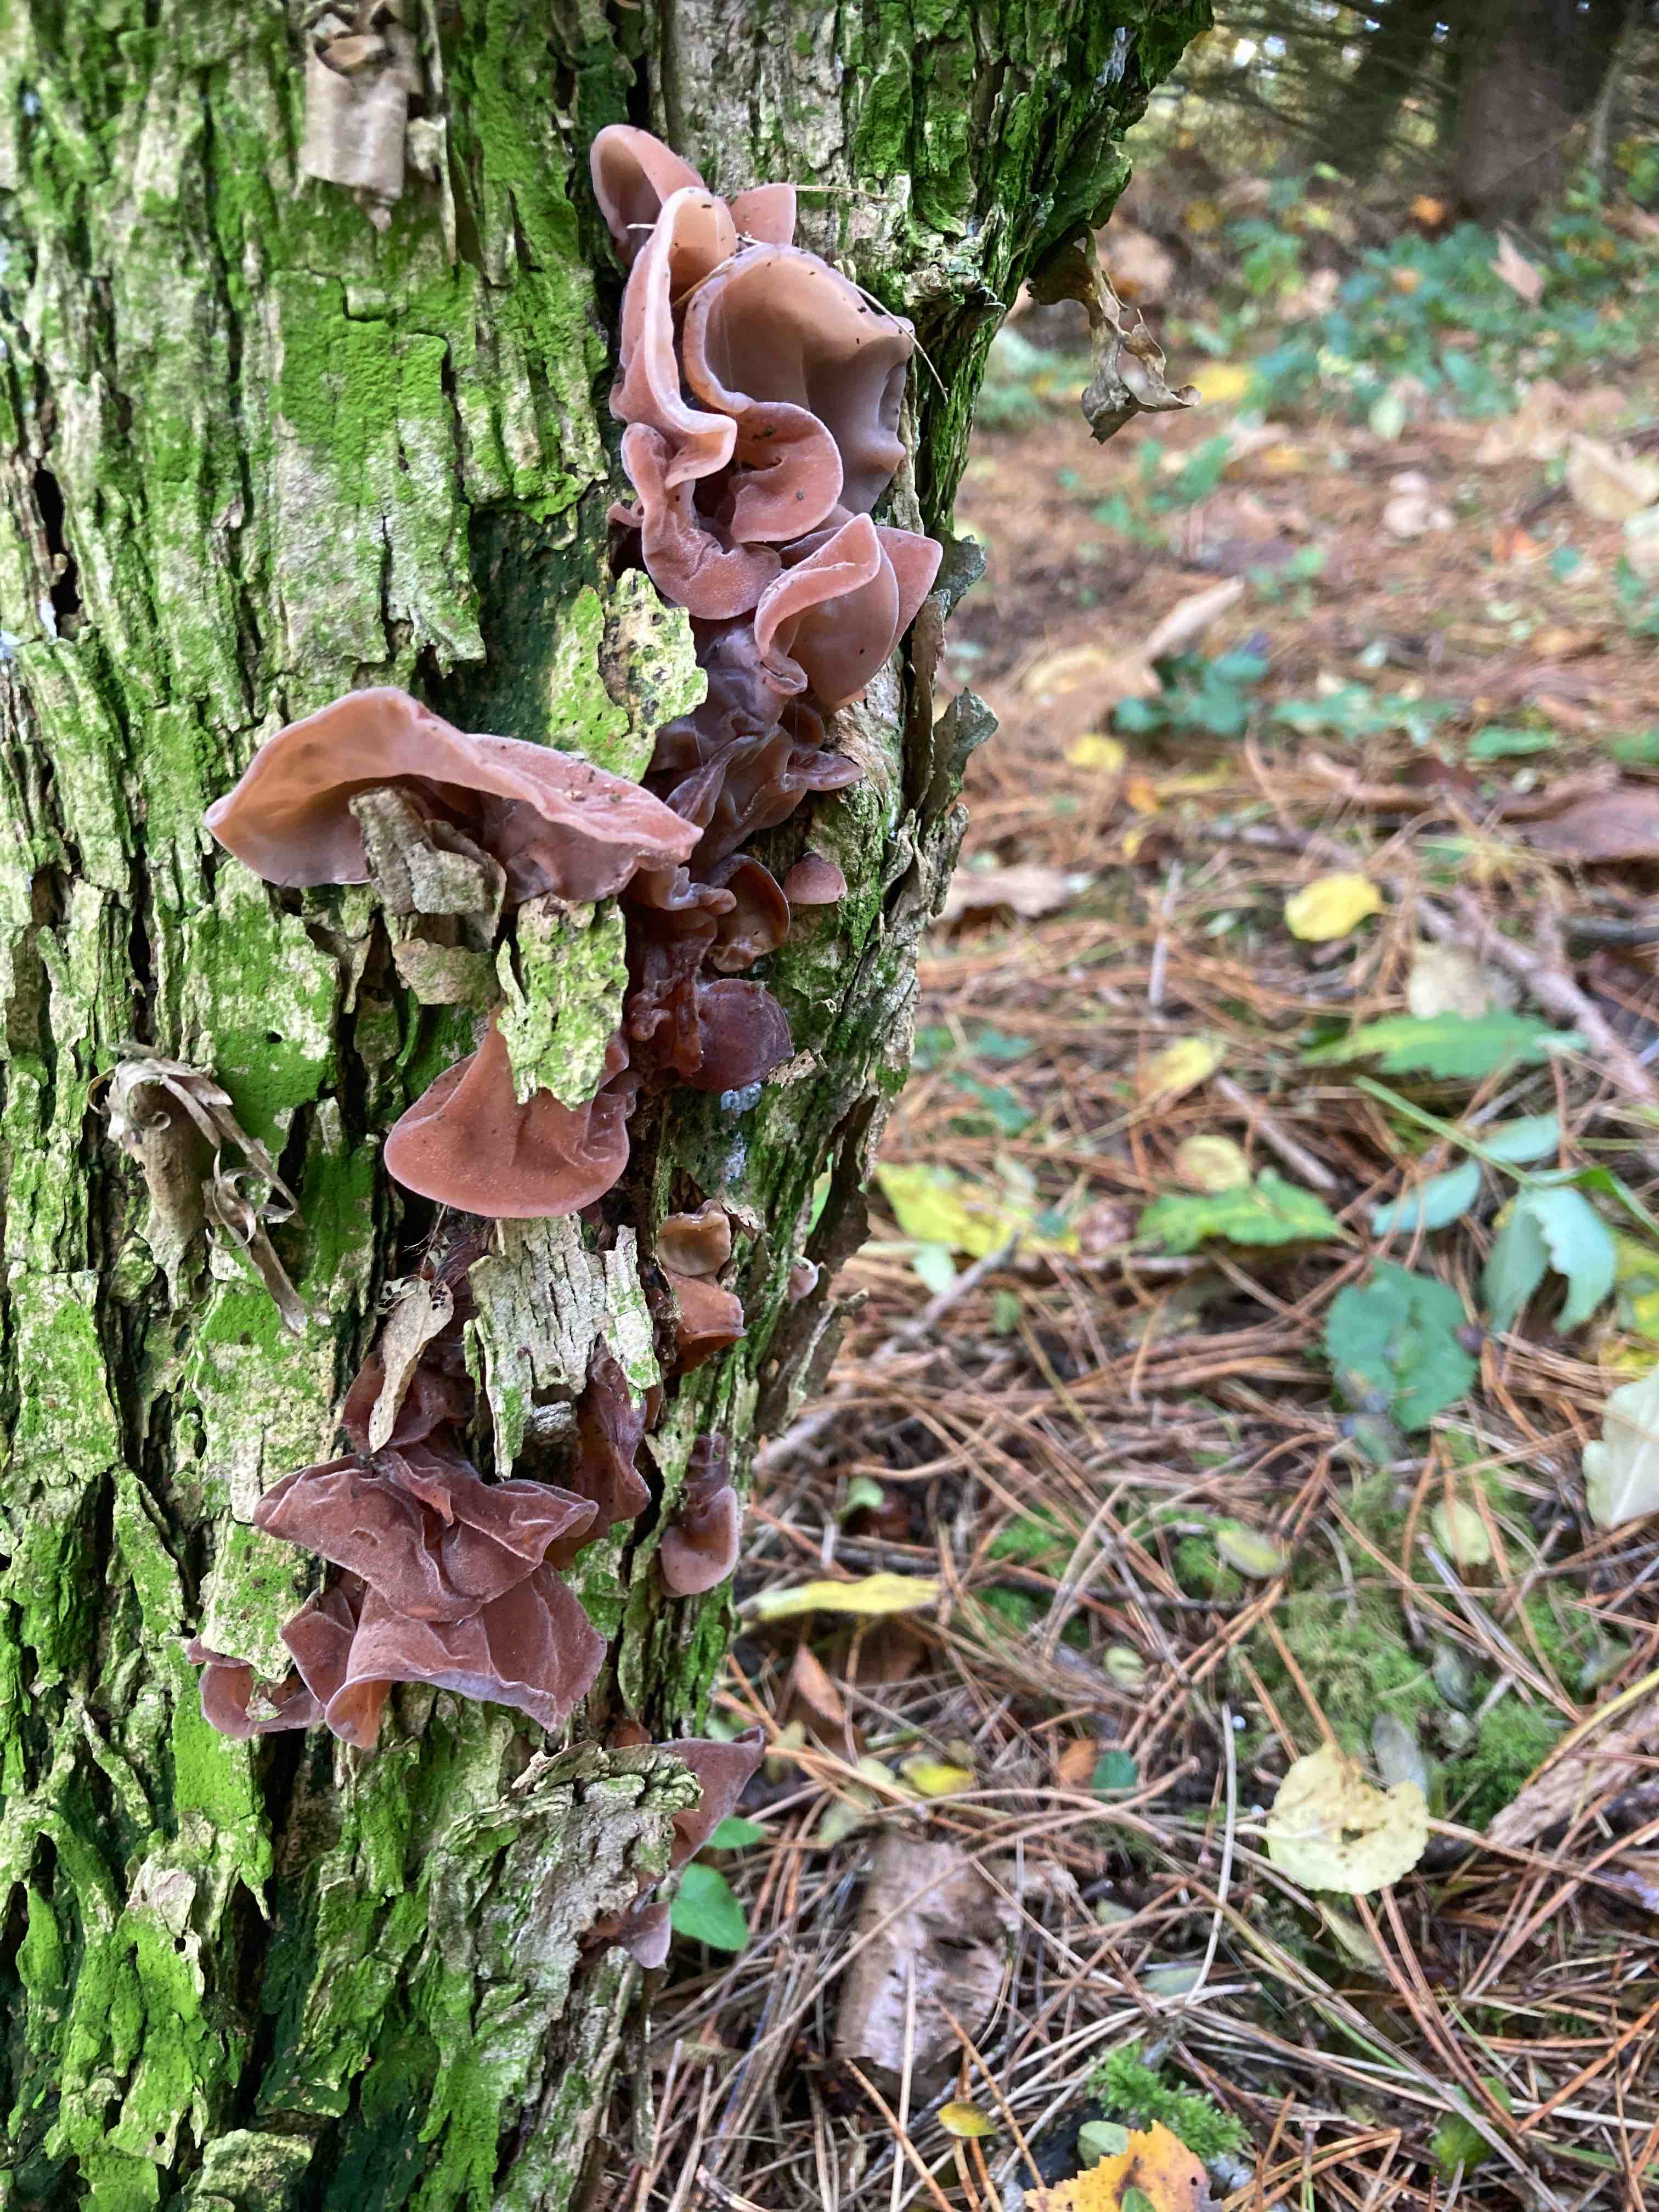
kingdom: Fungi
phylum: Basidiomycota
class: Agaricomycetes
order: Auriculariales
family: Auriculariaceae
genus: Auricularia
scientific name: Auricularia auricula-judae
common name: almindelig judasøre
